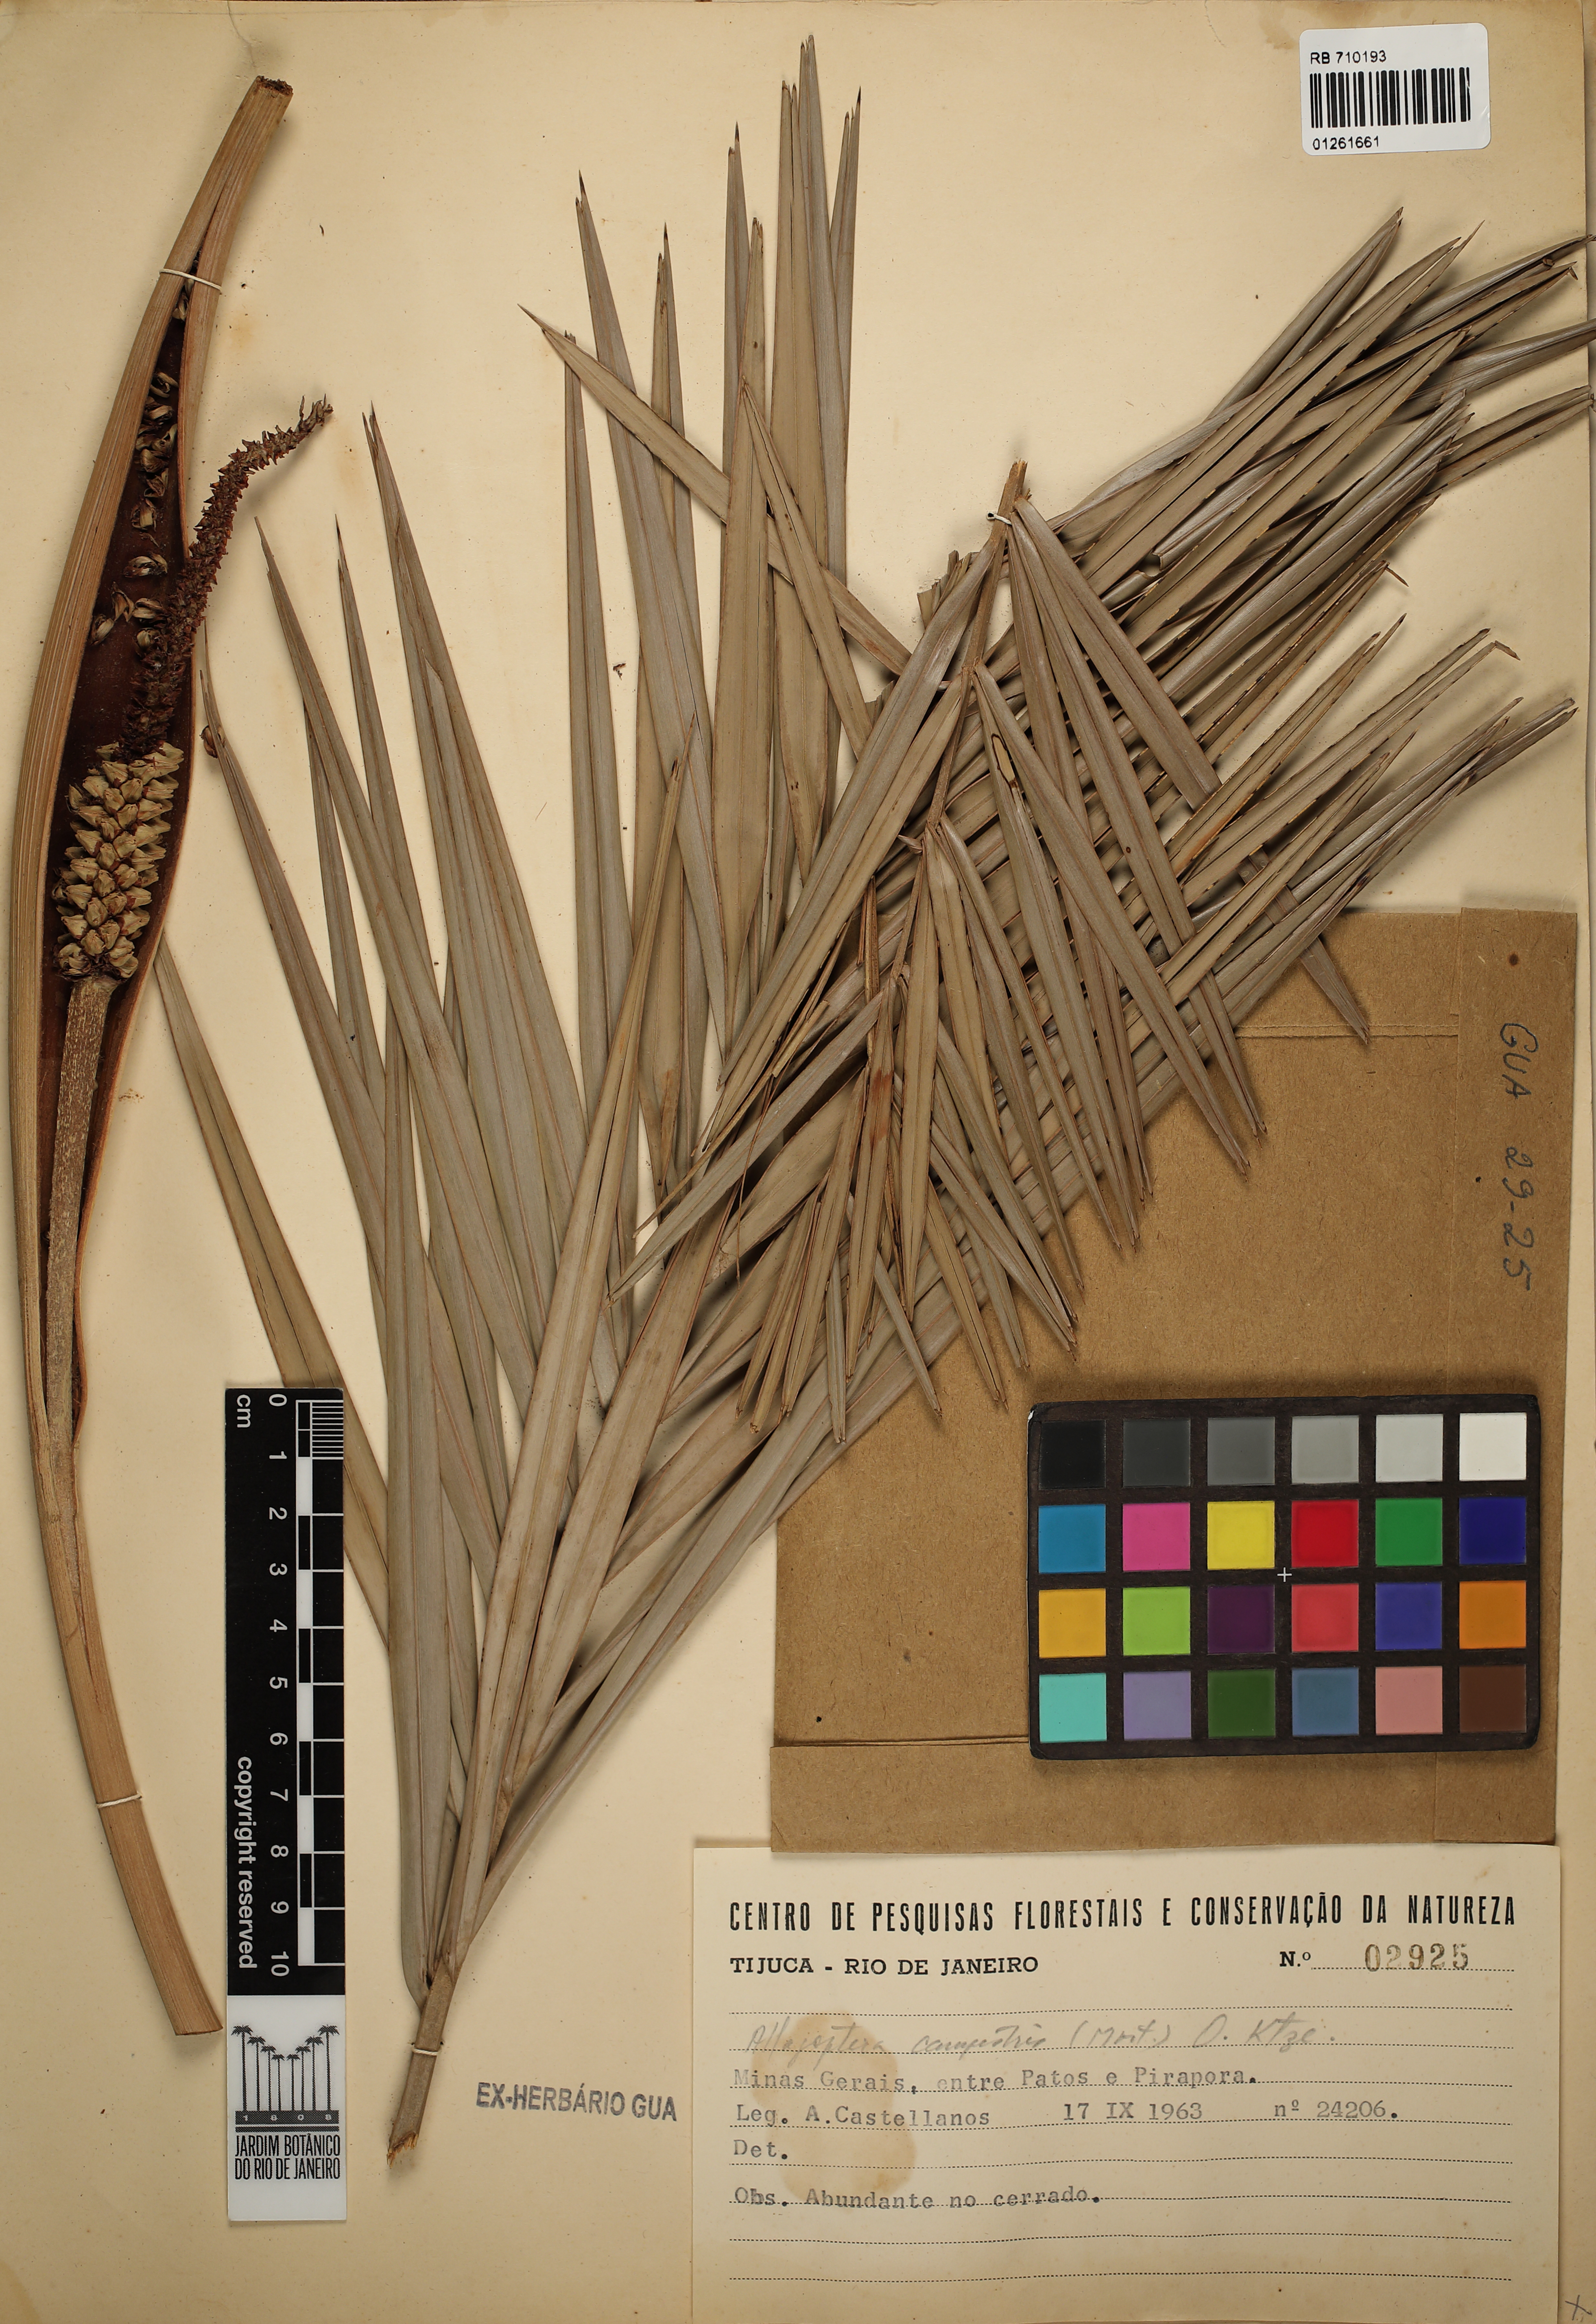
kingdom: Plantae
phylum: Tracheophyta
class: Liliopsida
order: Arecales
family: Arecaceae
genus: Allagoptera
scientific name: Allagoptera campestris
